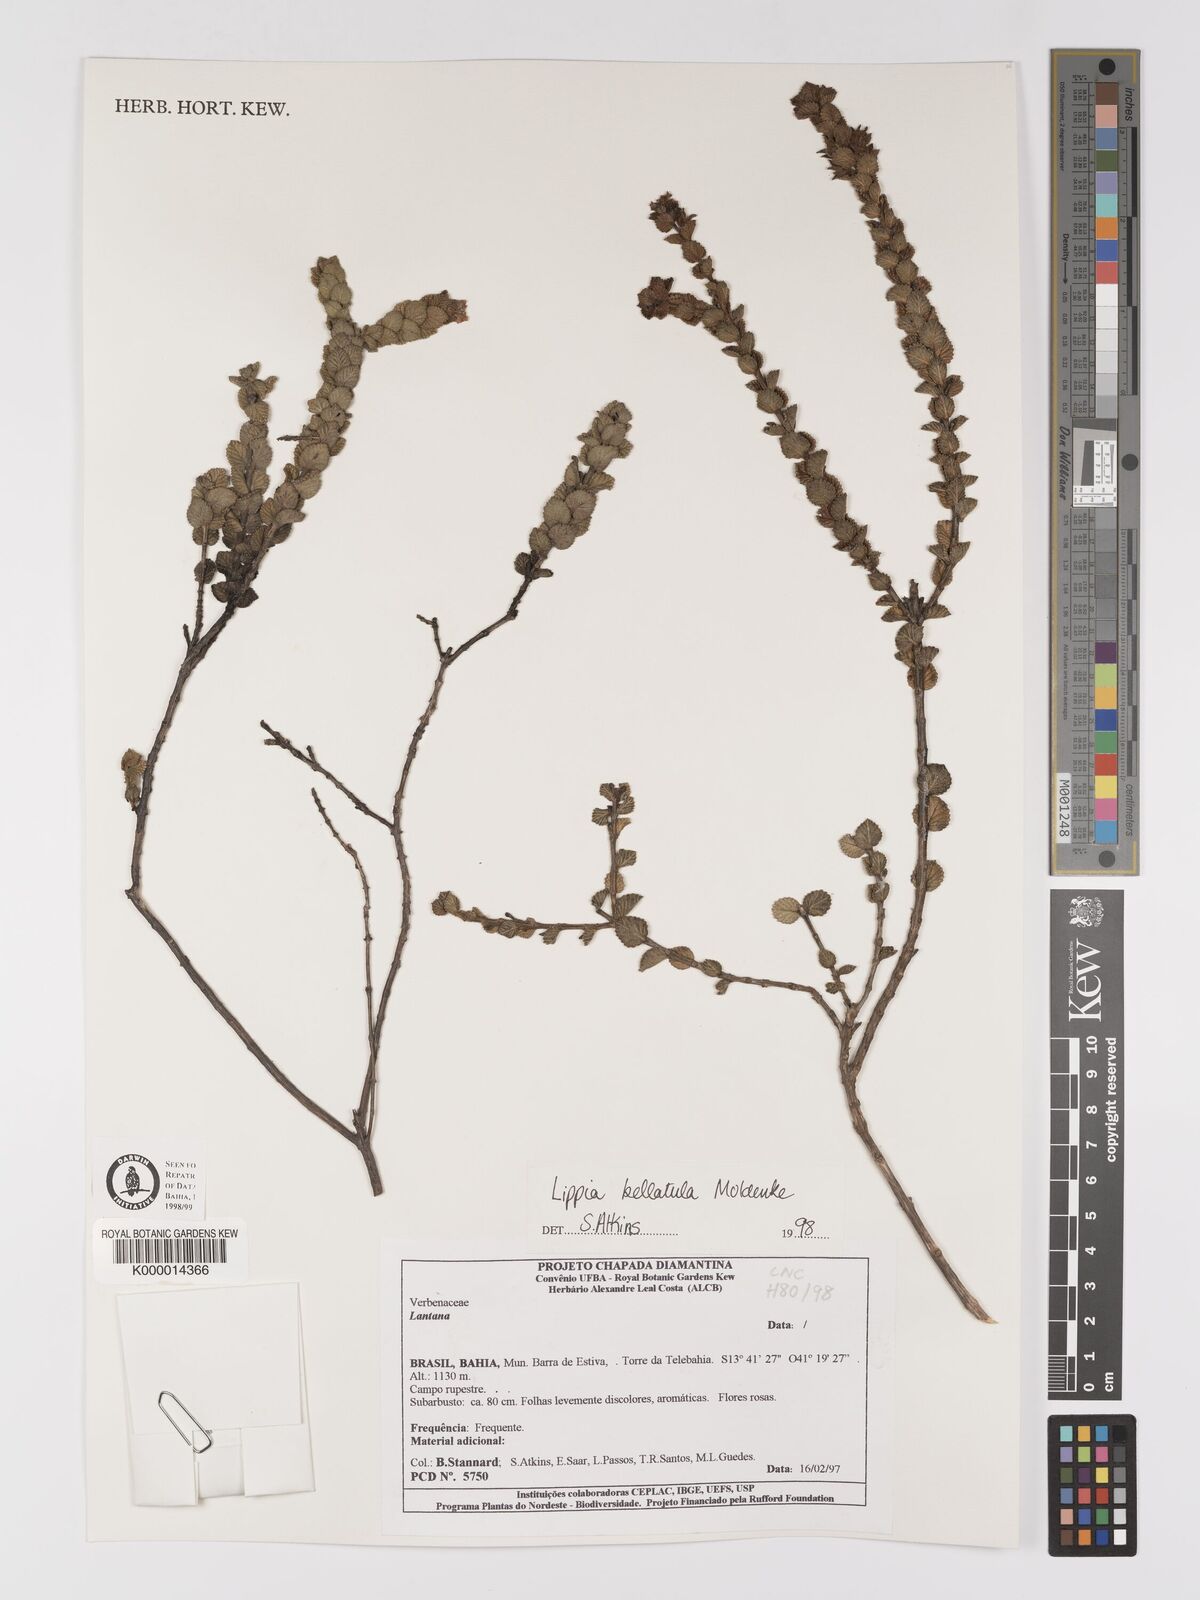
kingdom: Plantae
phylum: Tracheophyta
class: Magnoliopsida
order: Lamiales
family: Verbenaceae
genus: Lippia
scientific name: Lippia bellatula
